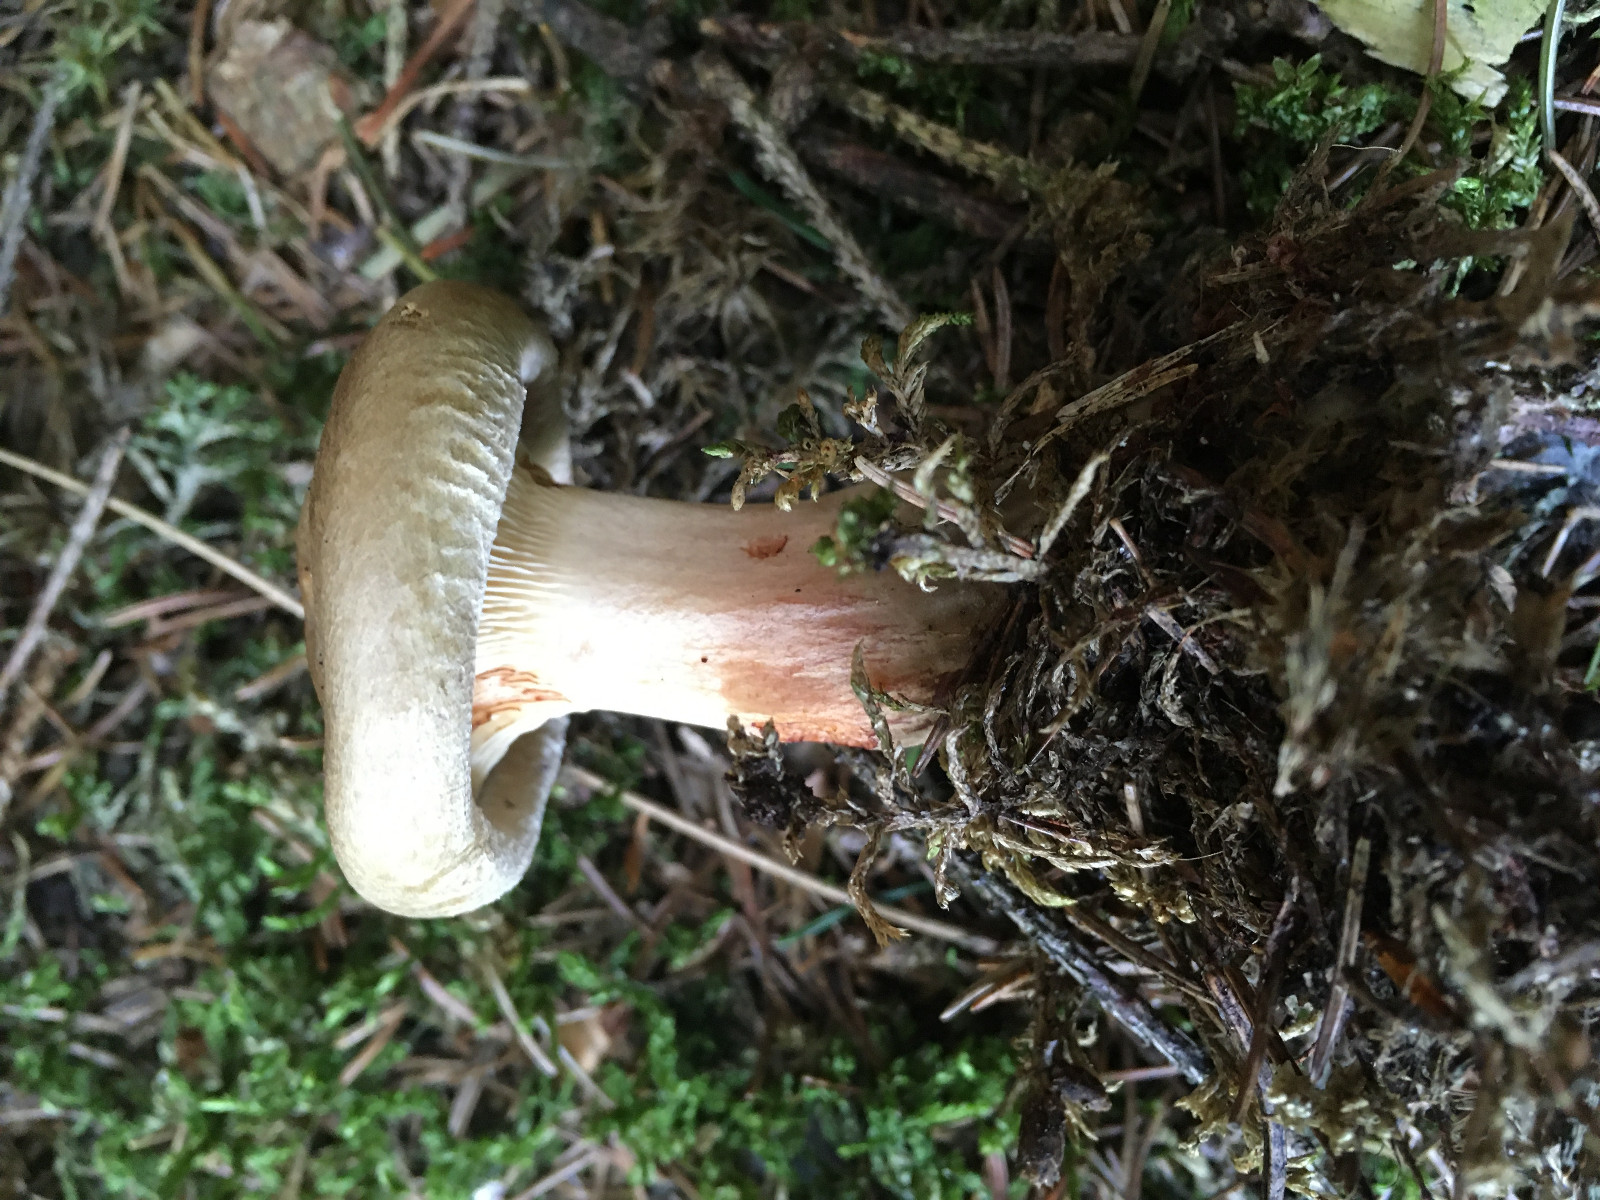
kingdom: Fungi
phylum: Basidiomycota
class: Agaricomycetes
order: Boletales
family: Paxillaceae
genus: Paxillus
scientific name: Paxillus involutus
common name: almindelig netbladhat
